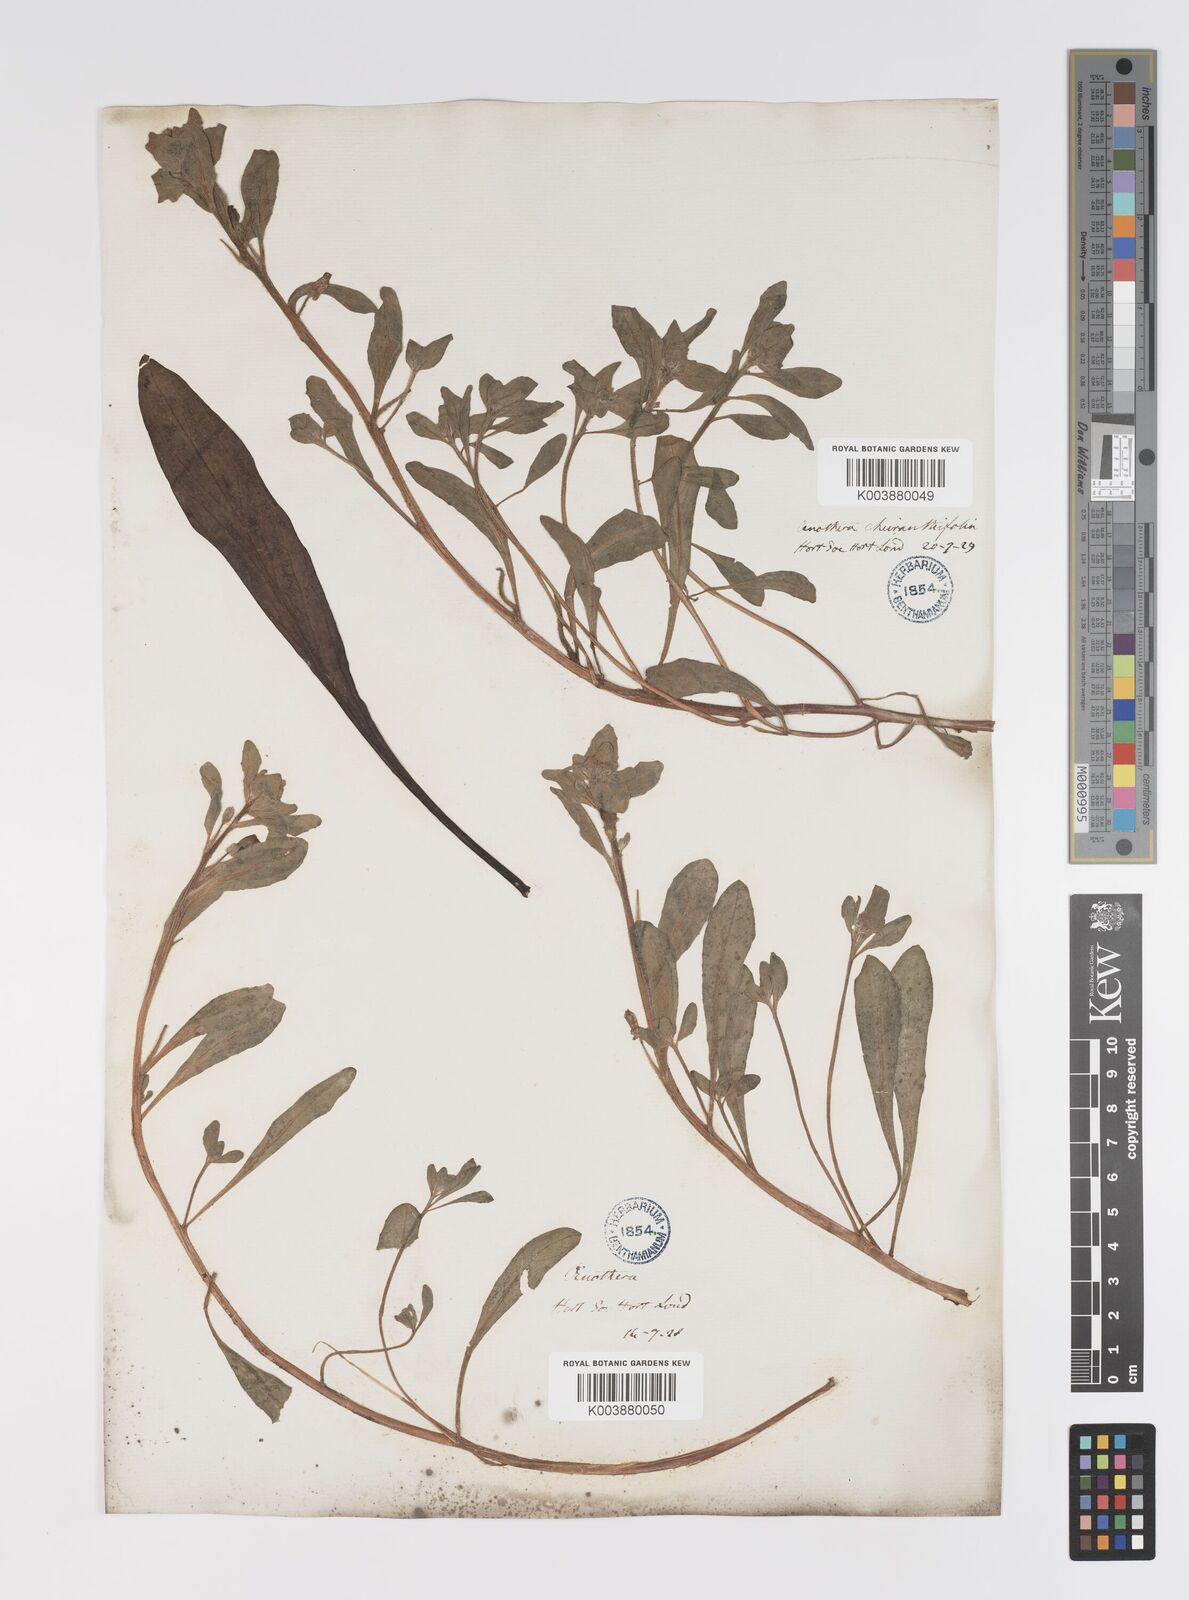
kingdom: Plantae
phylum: Tracheophyta
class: Magnoliopsida
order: Myrtales
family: Onagraceae
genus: Camissoniopsis
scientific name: Camissoniopsis cheiranthifolia
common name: Beach suncup
